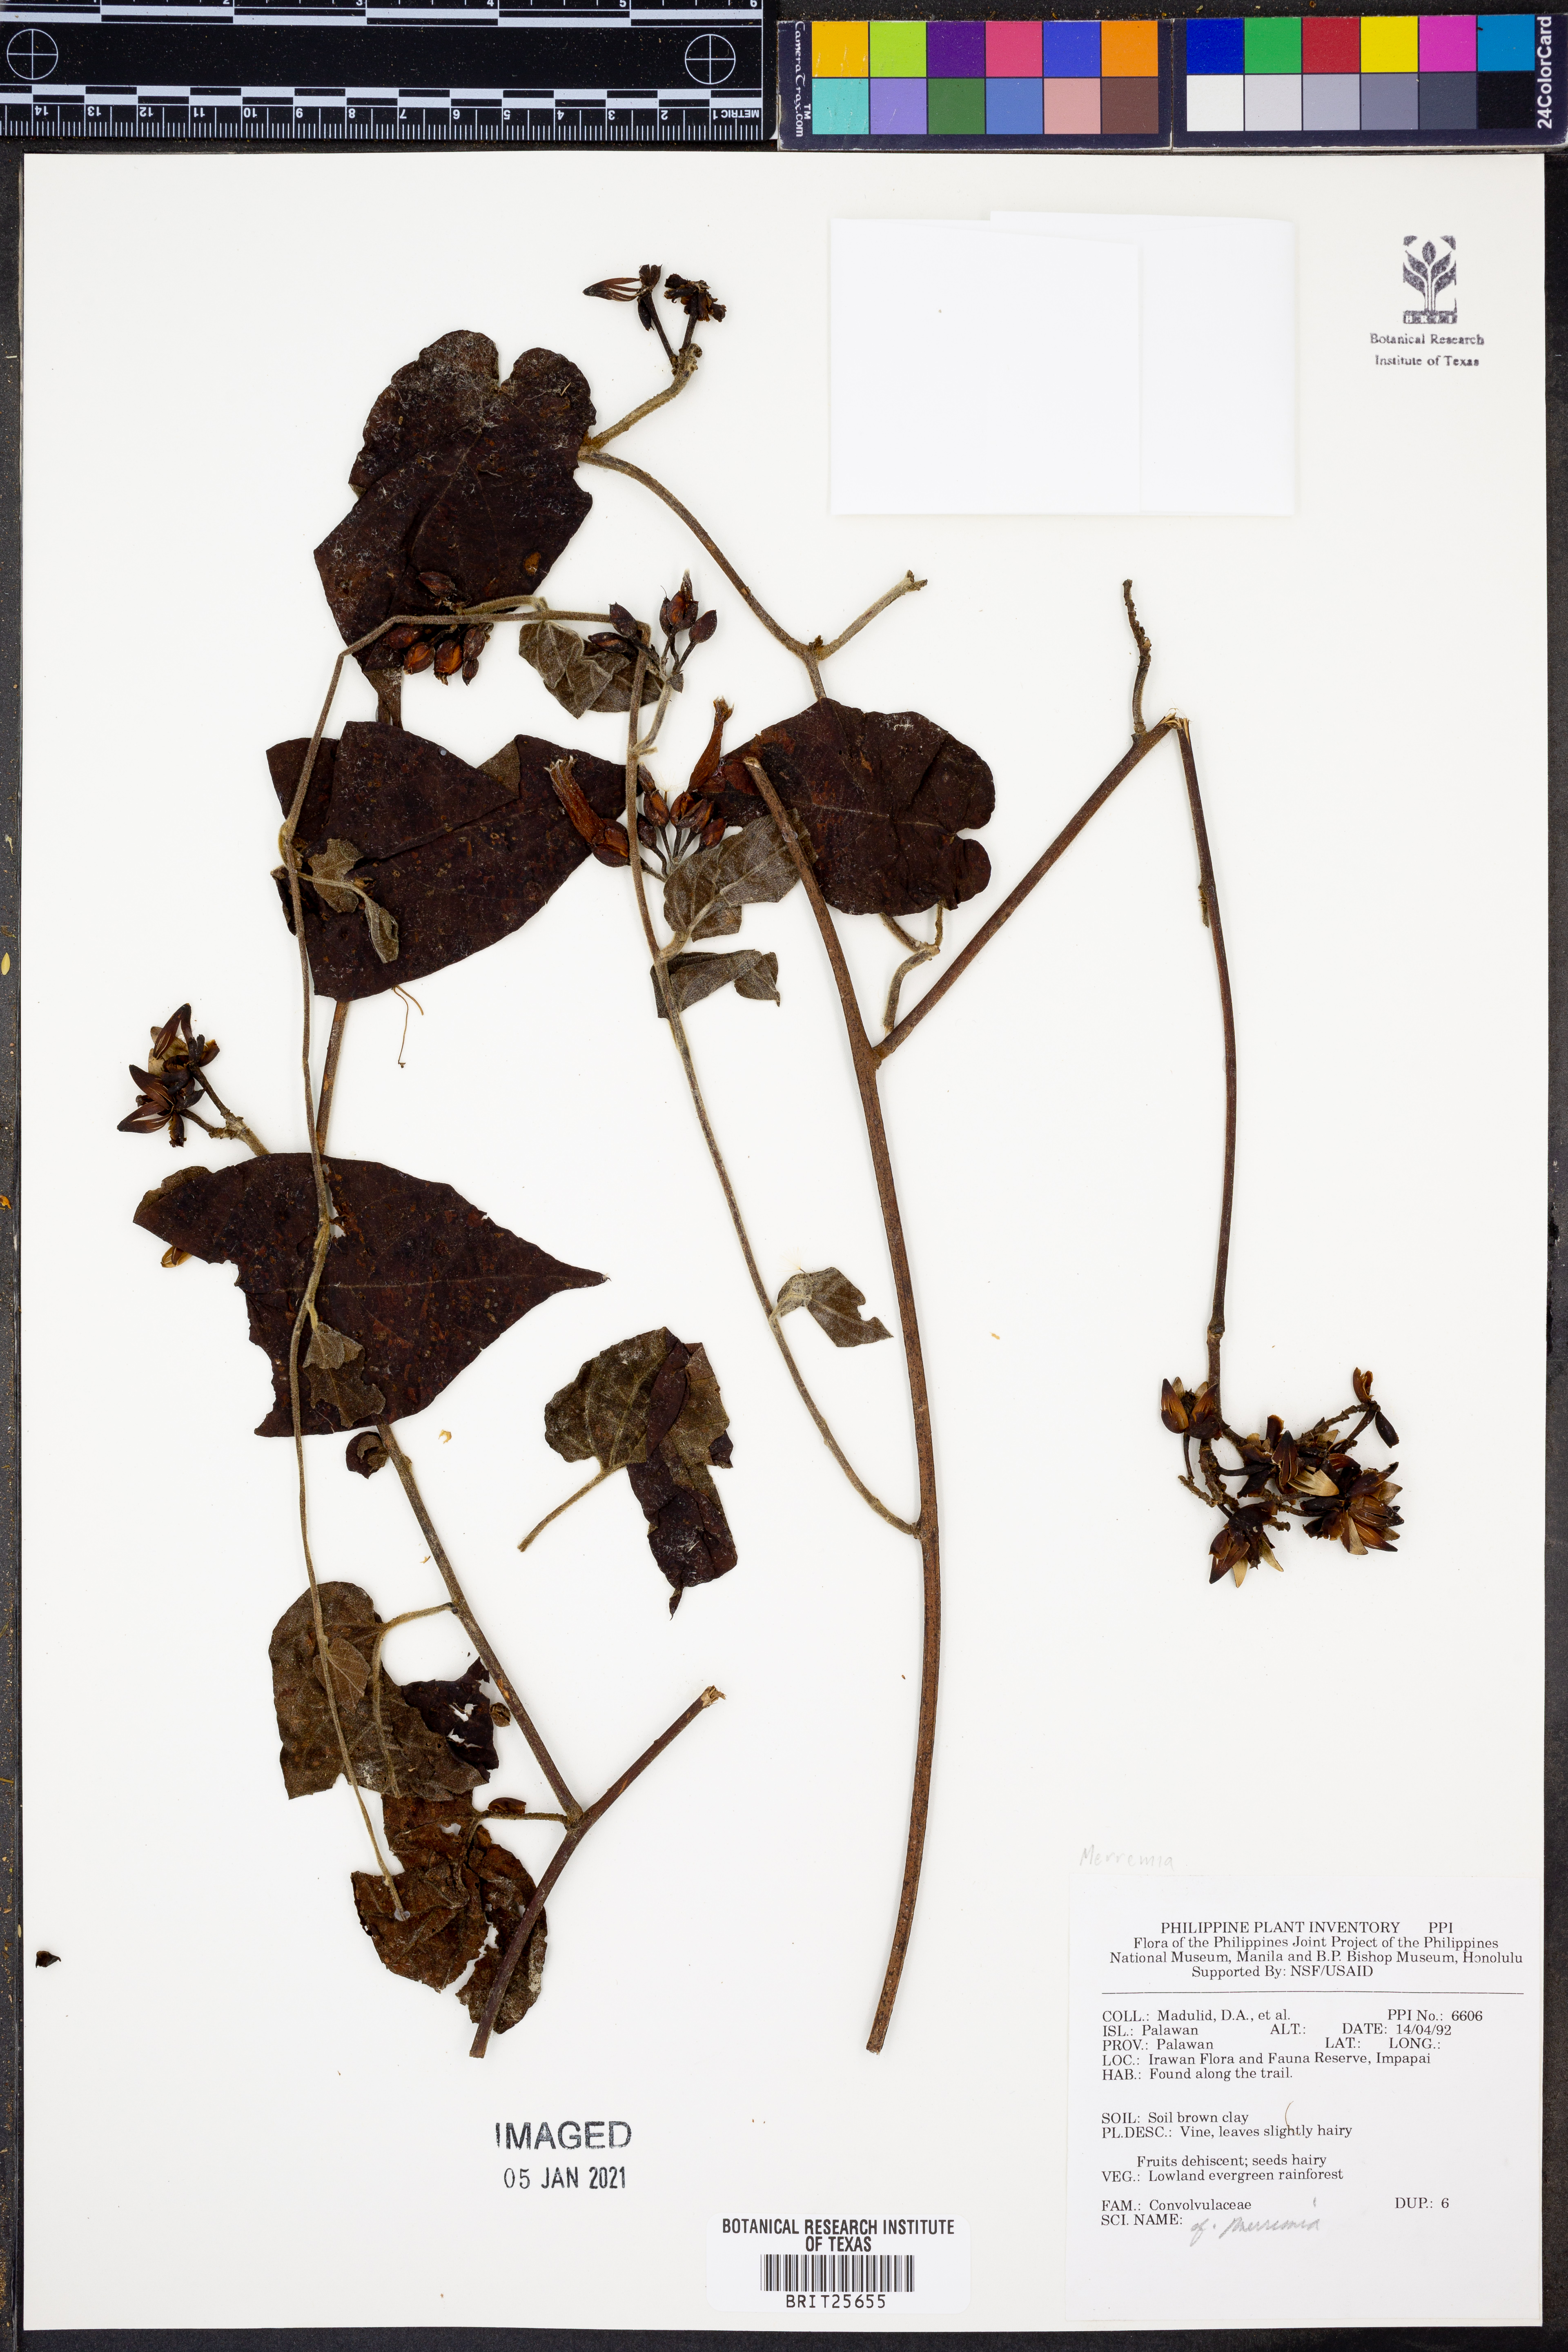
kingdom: Plantae
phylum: Tracheophyta
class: Magnoliopsida
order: Solanales
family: Convolvulaceae
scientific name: Convolvulaceae
